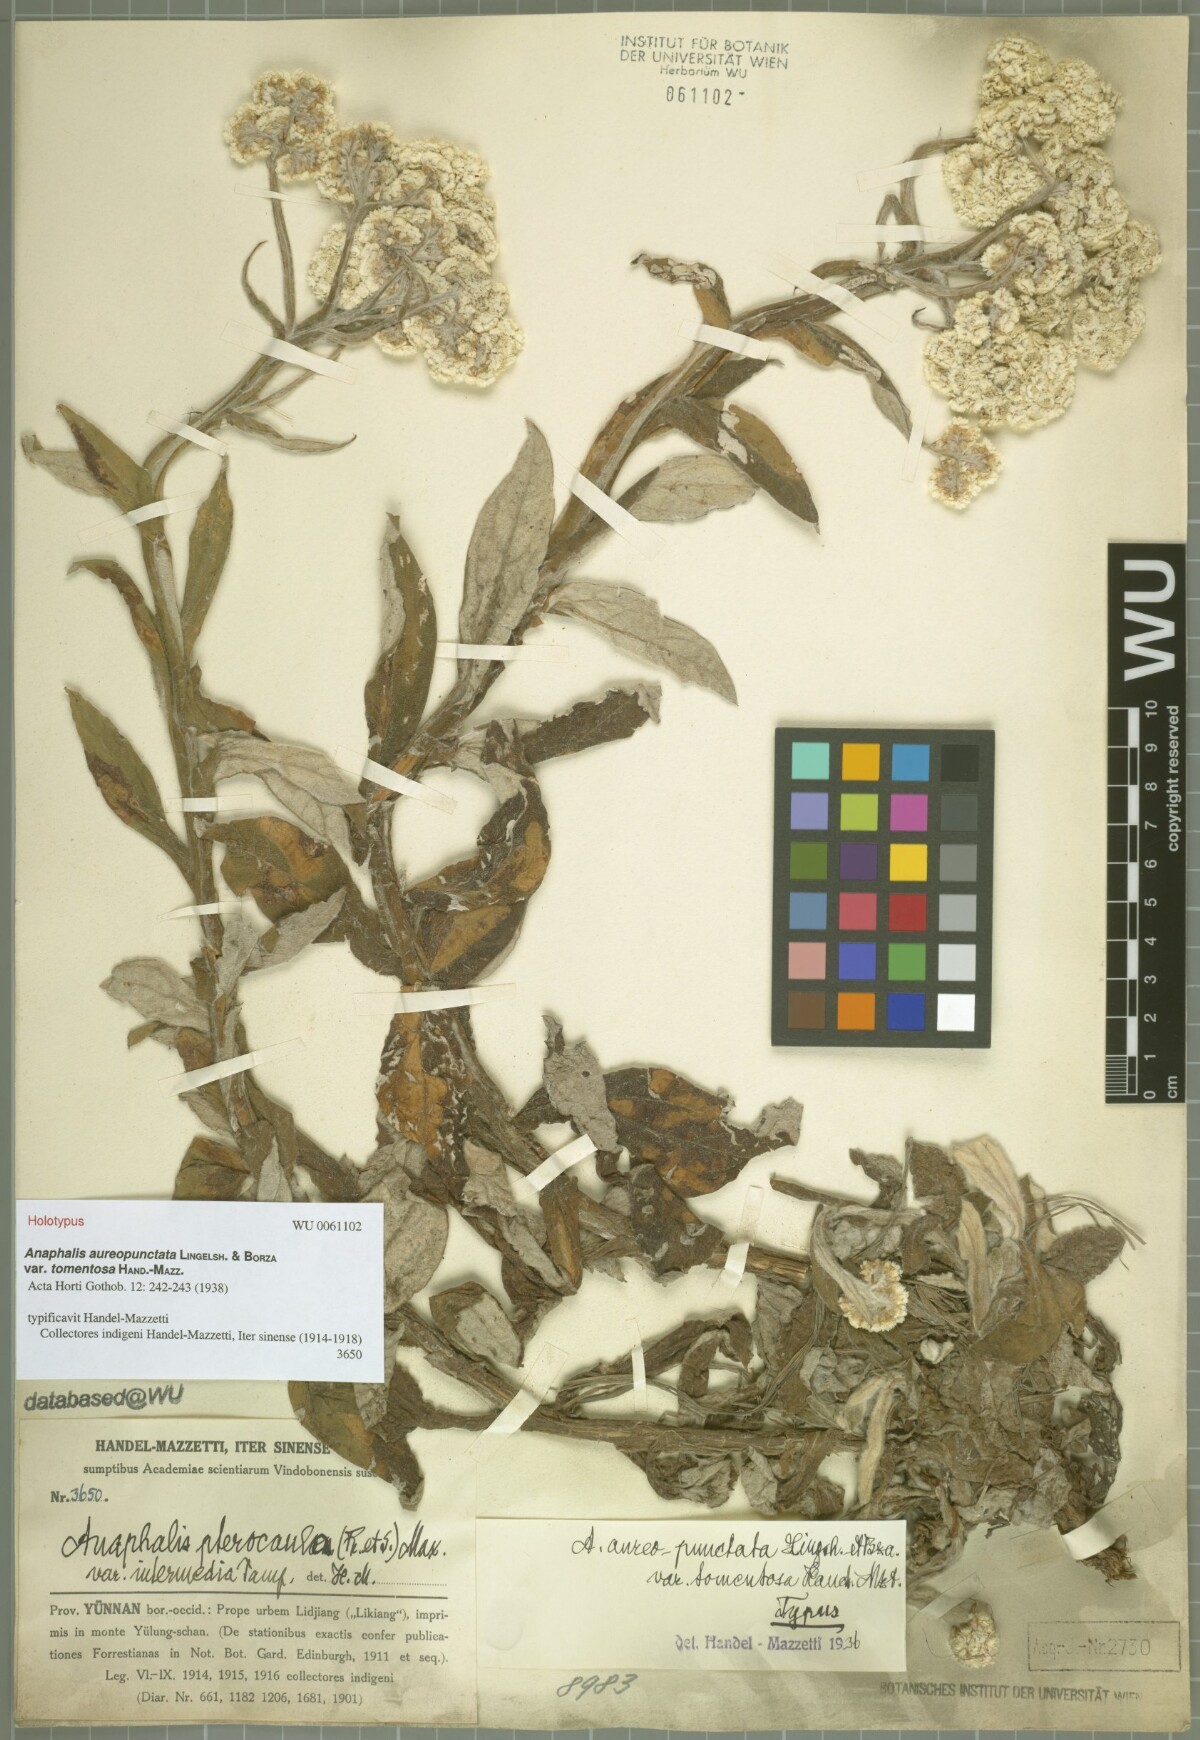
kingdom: Plantae
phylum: Tracheophyta
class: Magnoliopsida
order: Asterales
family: Asteraceae
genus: Anaphalis
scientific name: Anaphalis aureopunctata
